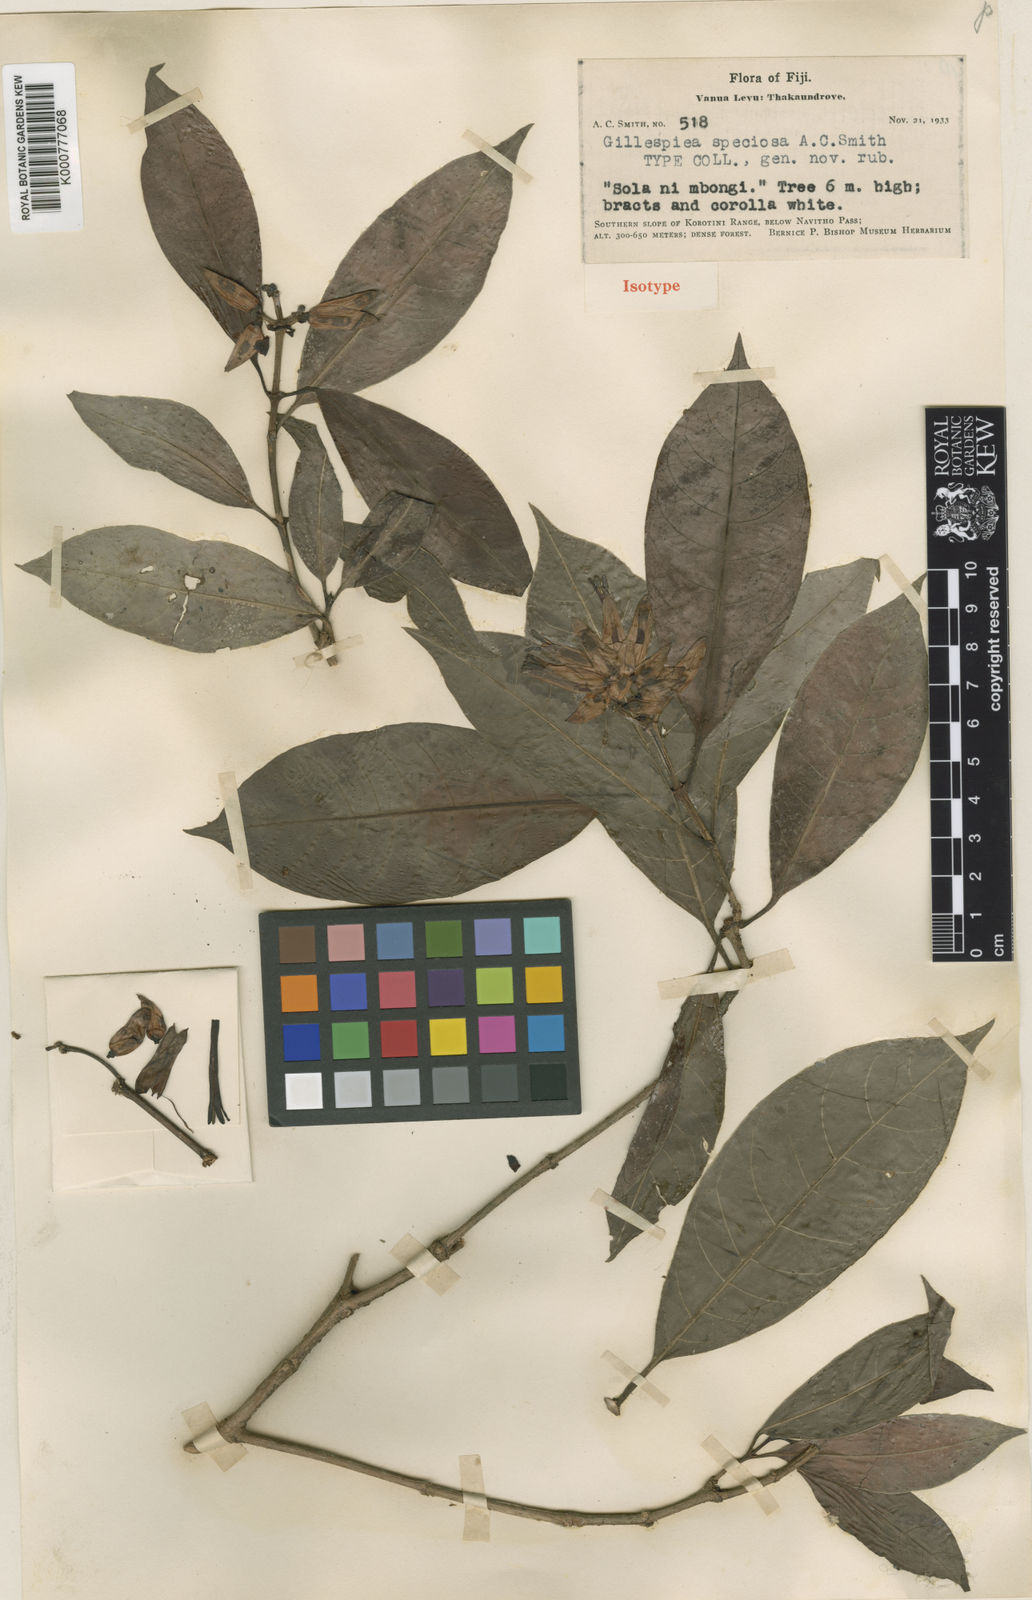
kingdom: Plantae
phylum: Tracheophyta
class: Magnoliopsida
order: Gentianales
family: Rubiaceae
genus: Gillespiea
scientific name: Gillespiea speciosa
